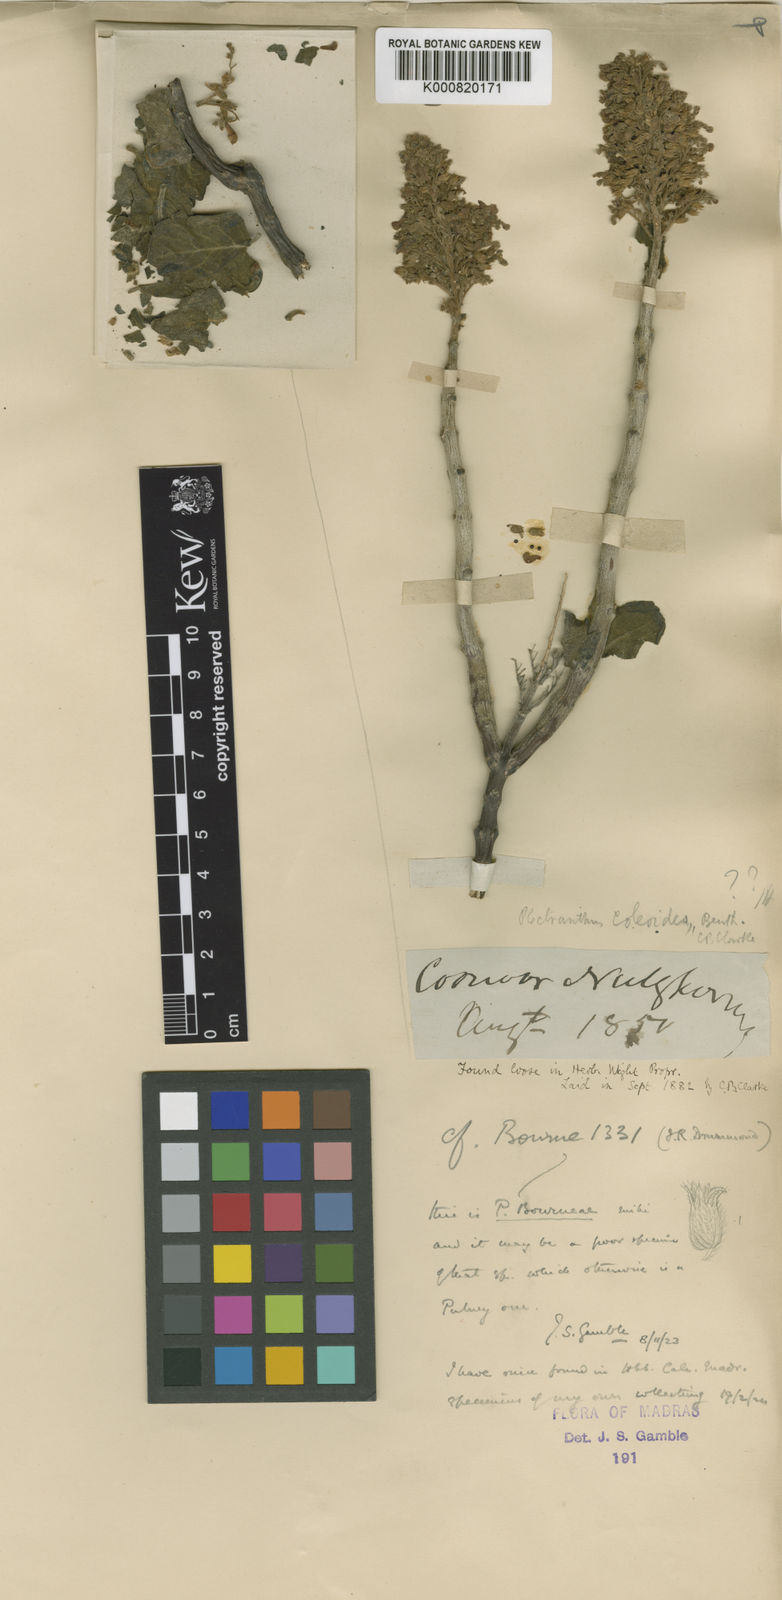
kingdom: Plantae
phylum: Tracheophyta
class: Magnoliopsida
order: Lamiales
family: Lamiaceae
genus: Coleus
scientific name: Coleus bourneae
